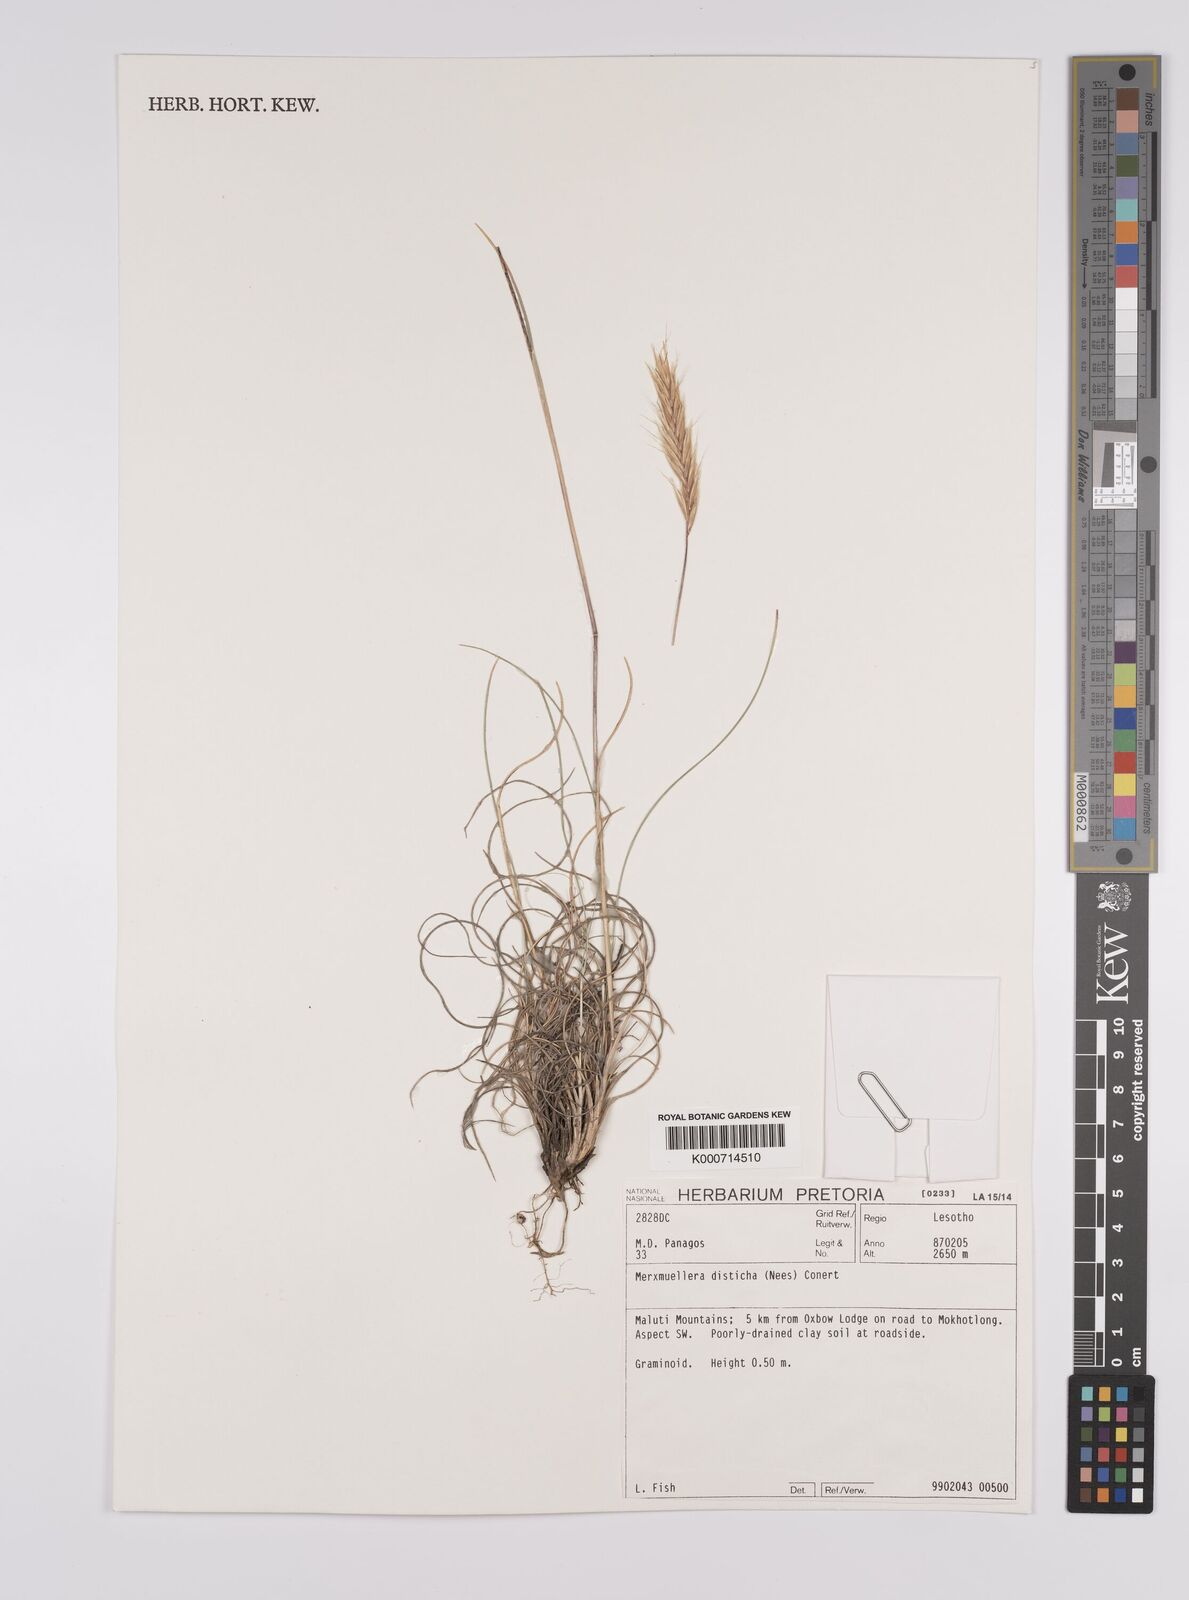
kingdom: Plantae
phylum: Tracheophyta
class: Liliopsida
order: Poales
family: Poaceae
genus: Tenaxia
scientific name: Tenaxia disticha
